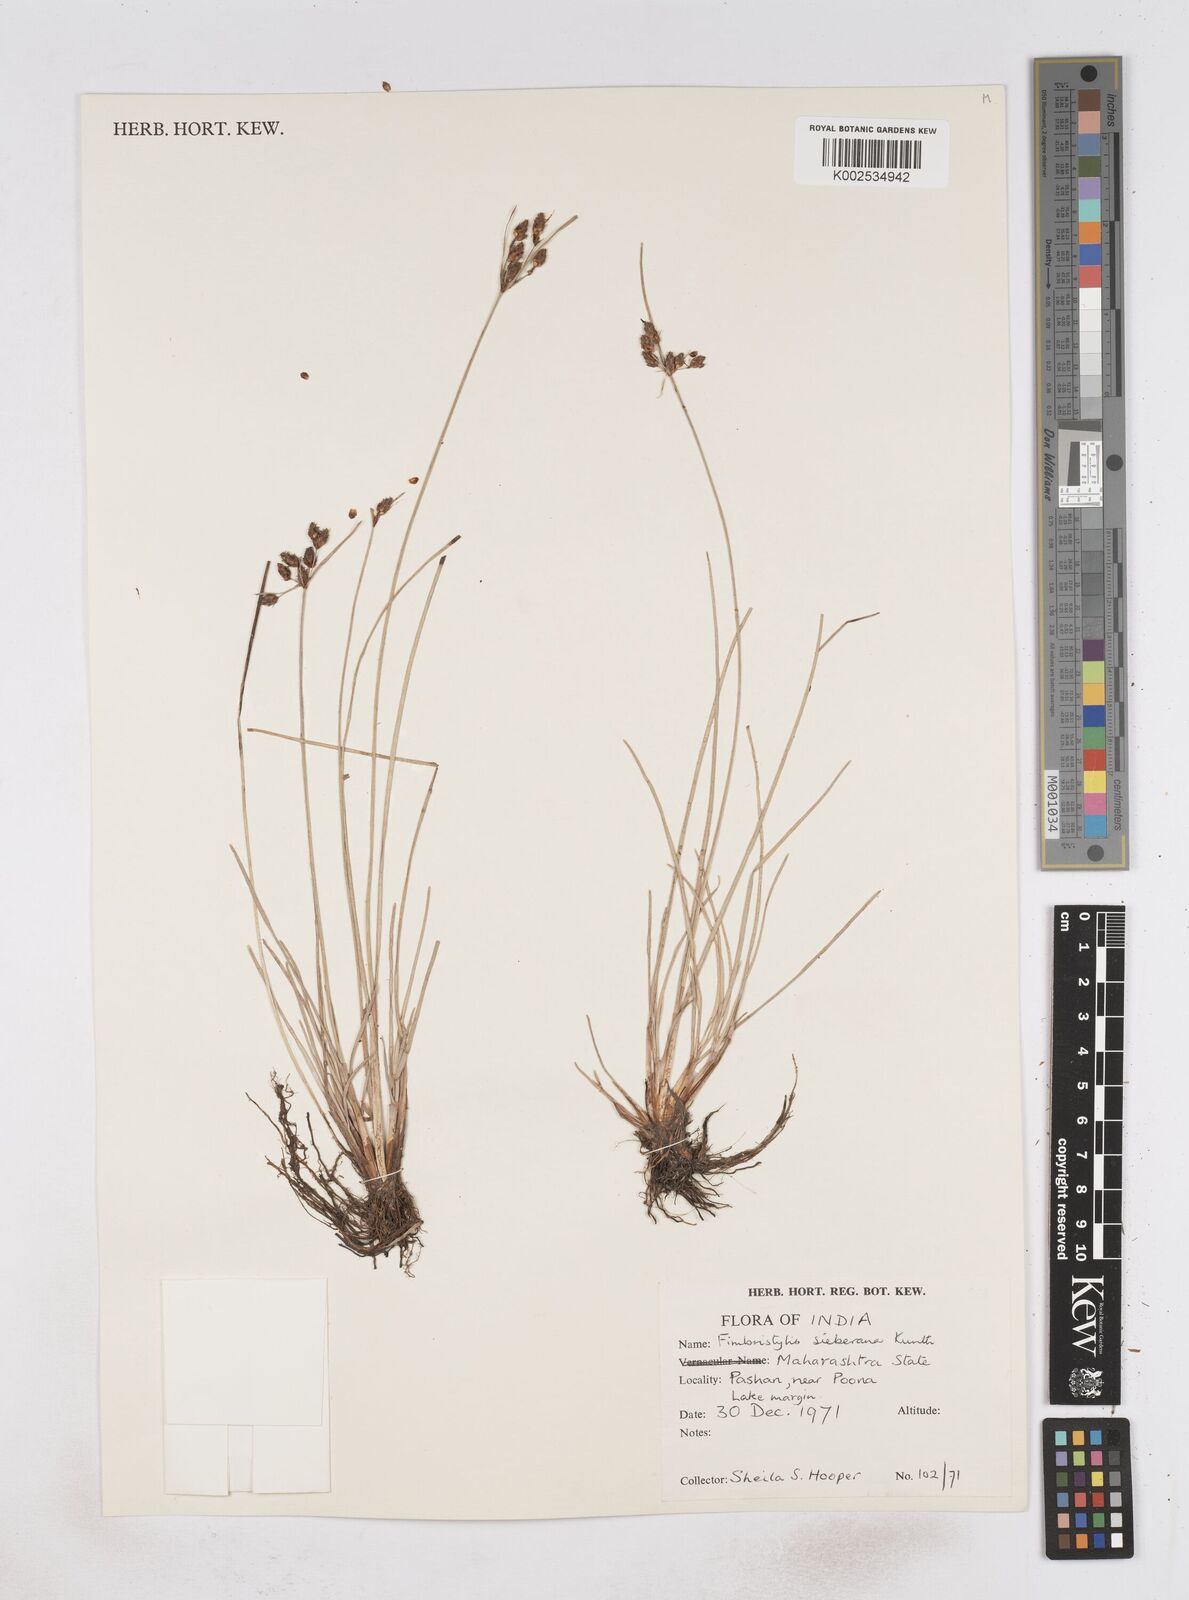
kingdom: Plantae
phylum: Tracheophyta
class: Liliopsida
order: Poales
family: Cyperaceae
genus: Fimbristylis
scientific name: Fimbristylis ferruginea
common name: West indian fimbry
